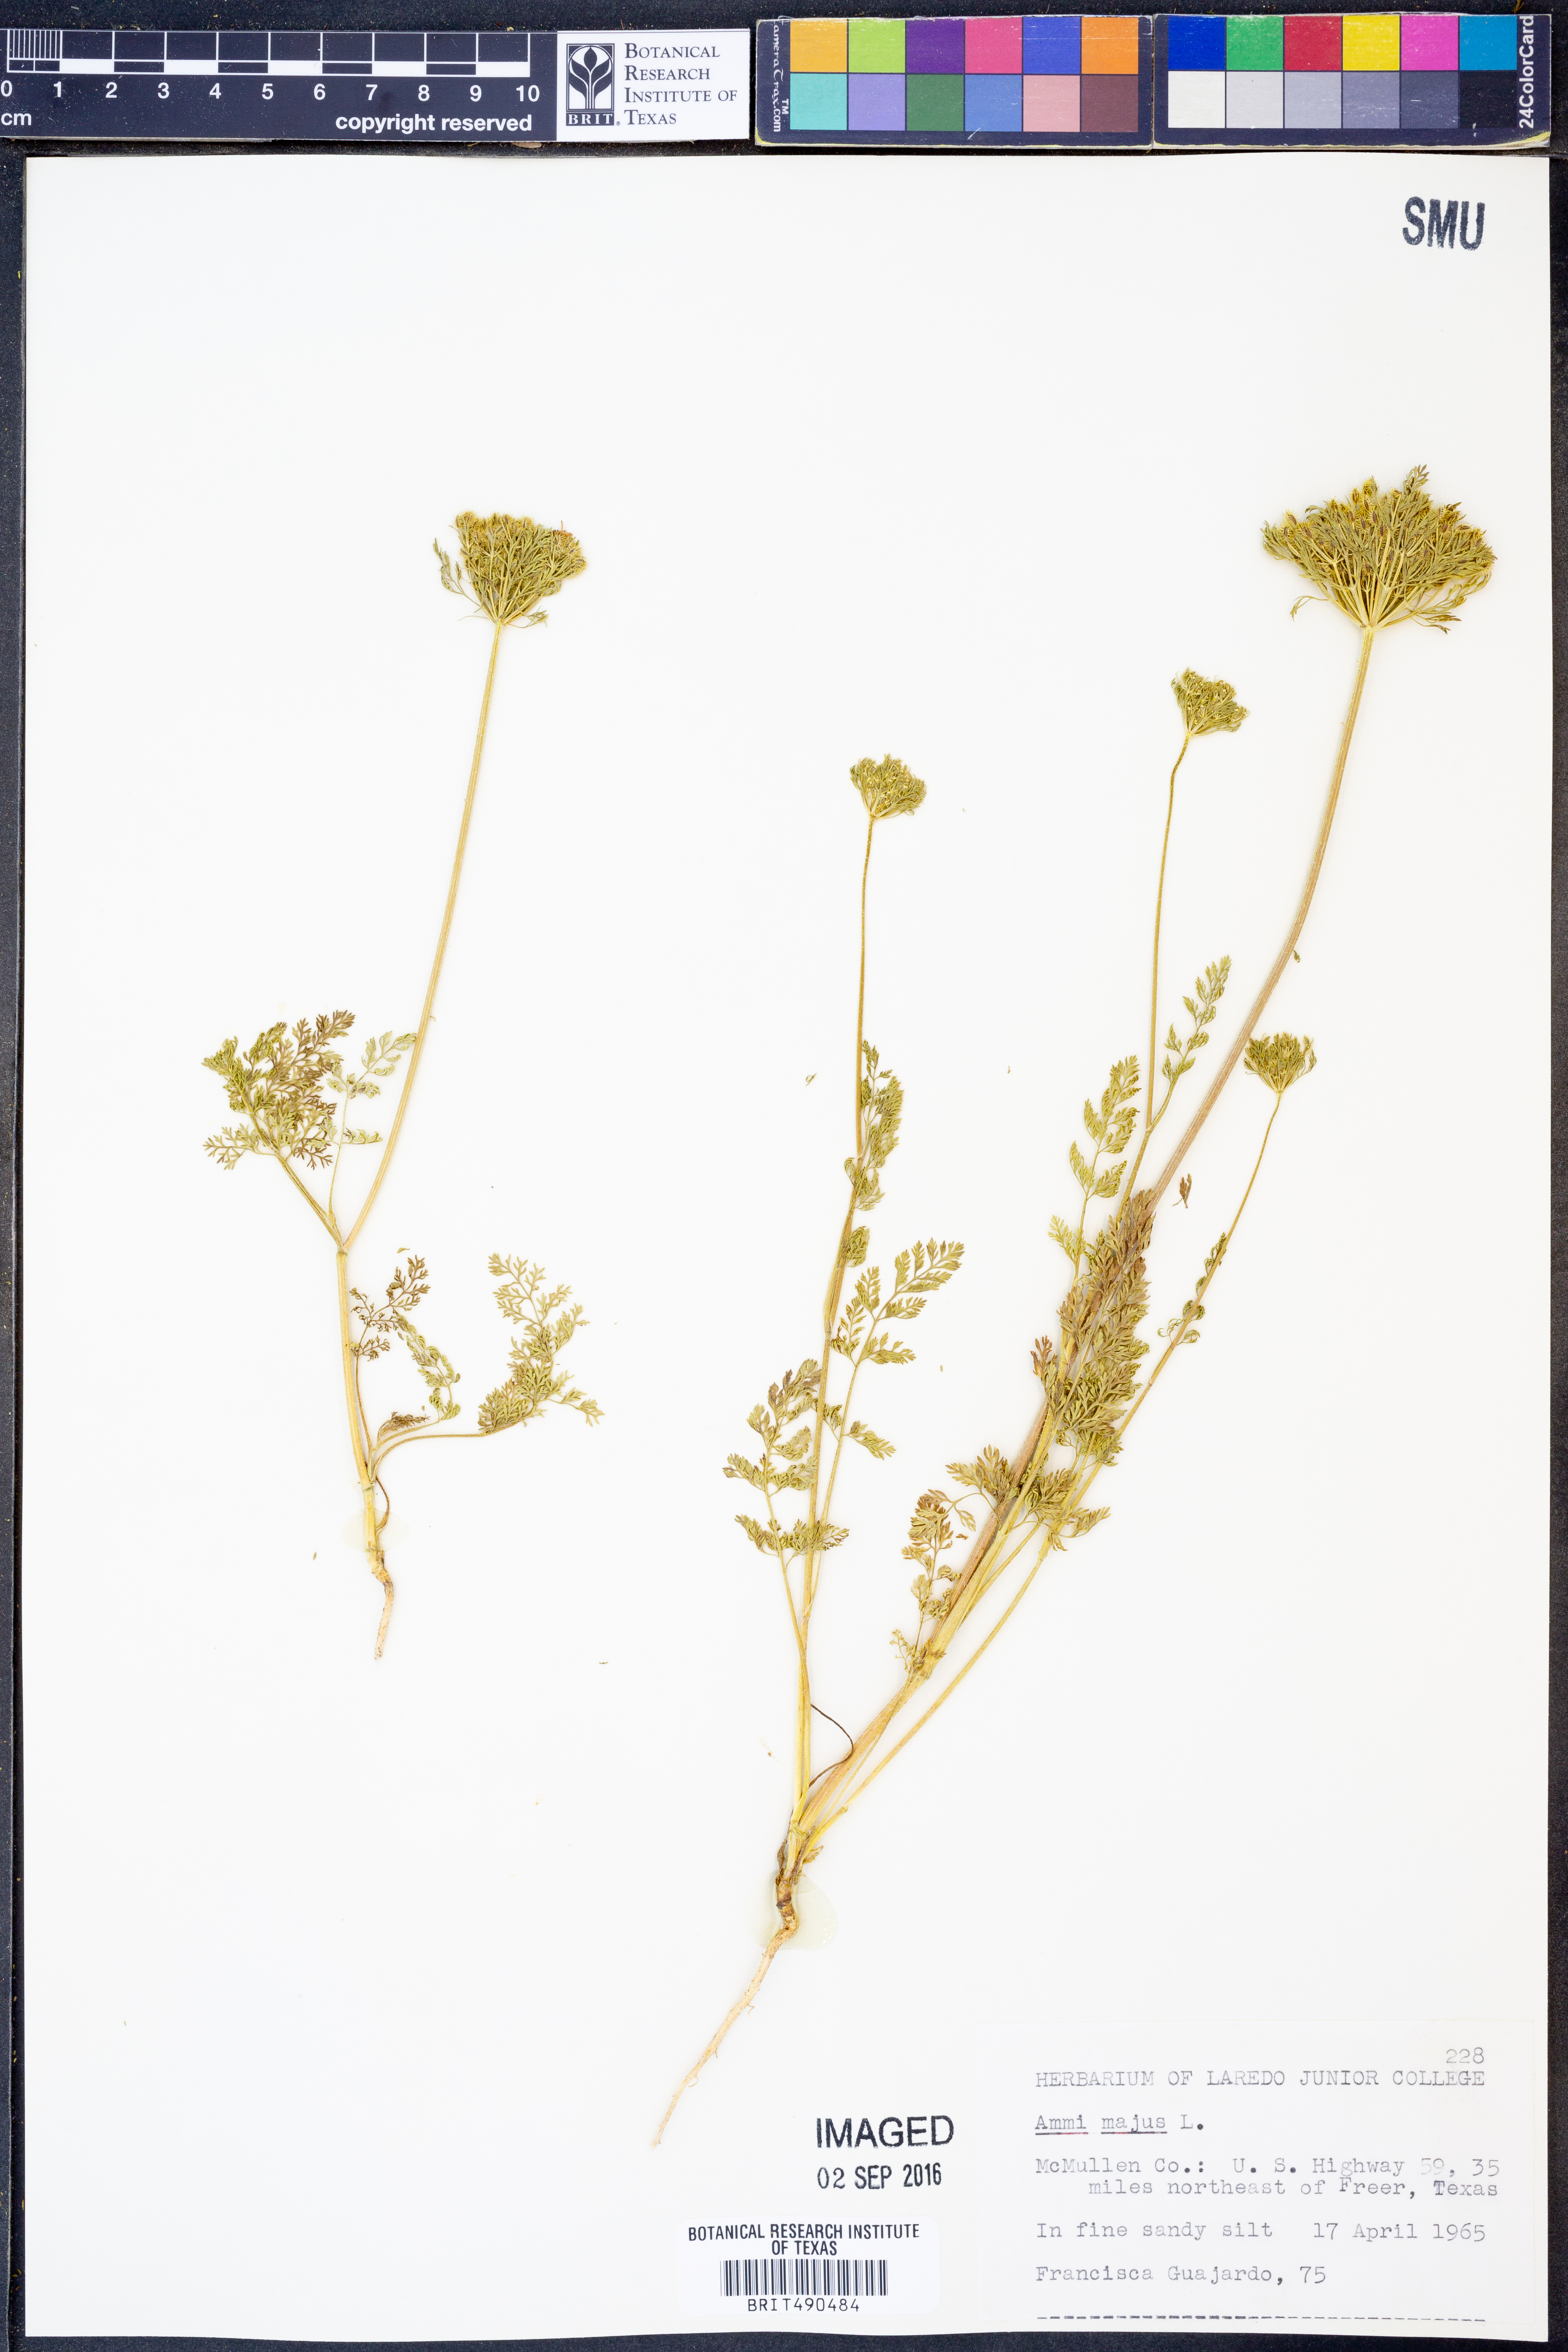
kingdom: Plantae
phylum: Tracheophyta
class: Magnoliopsida
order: Apiales
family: Apiaceae
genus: Ammi
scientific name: Ammi majus
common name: Bullwort
